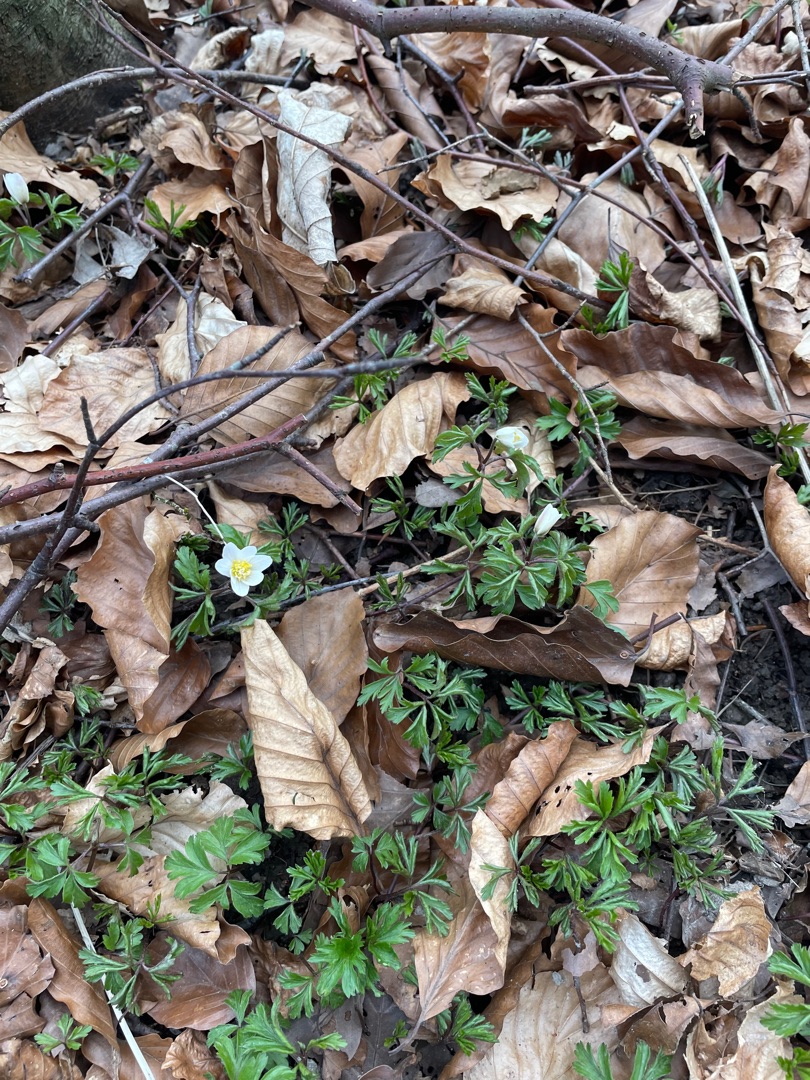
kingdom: Plantae
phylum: Tracheophyta
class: Magnoliopsida
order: Ranunculales
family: Ranunculaceae
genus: Anemone
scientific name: Anemone nemorosa
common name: Hvid anemone
